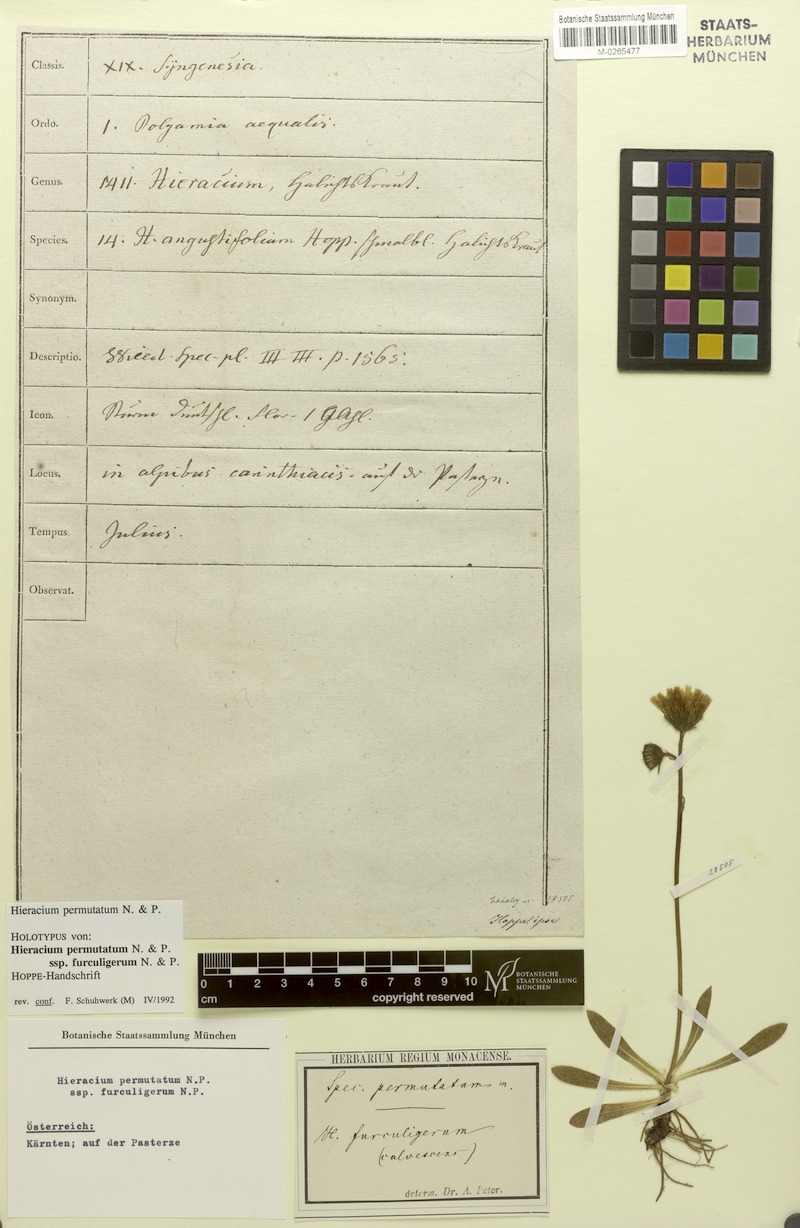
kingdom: Plantae
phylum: Tracheophyta
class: Magnoliopsida
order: Asterales
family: Asteraceae
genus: Pilosella
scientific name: Pilosella permutata
